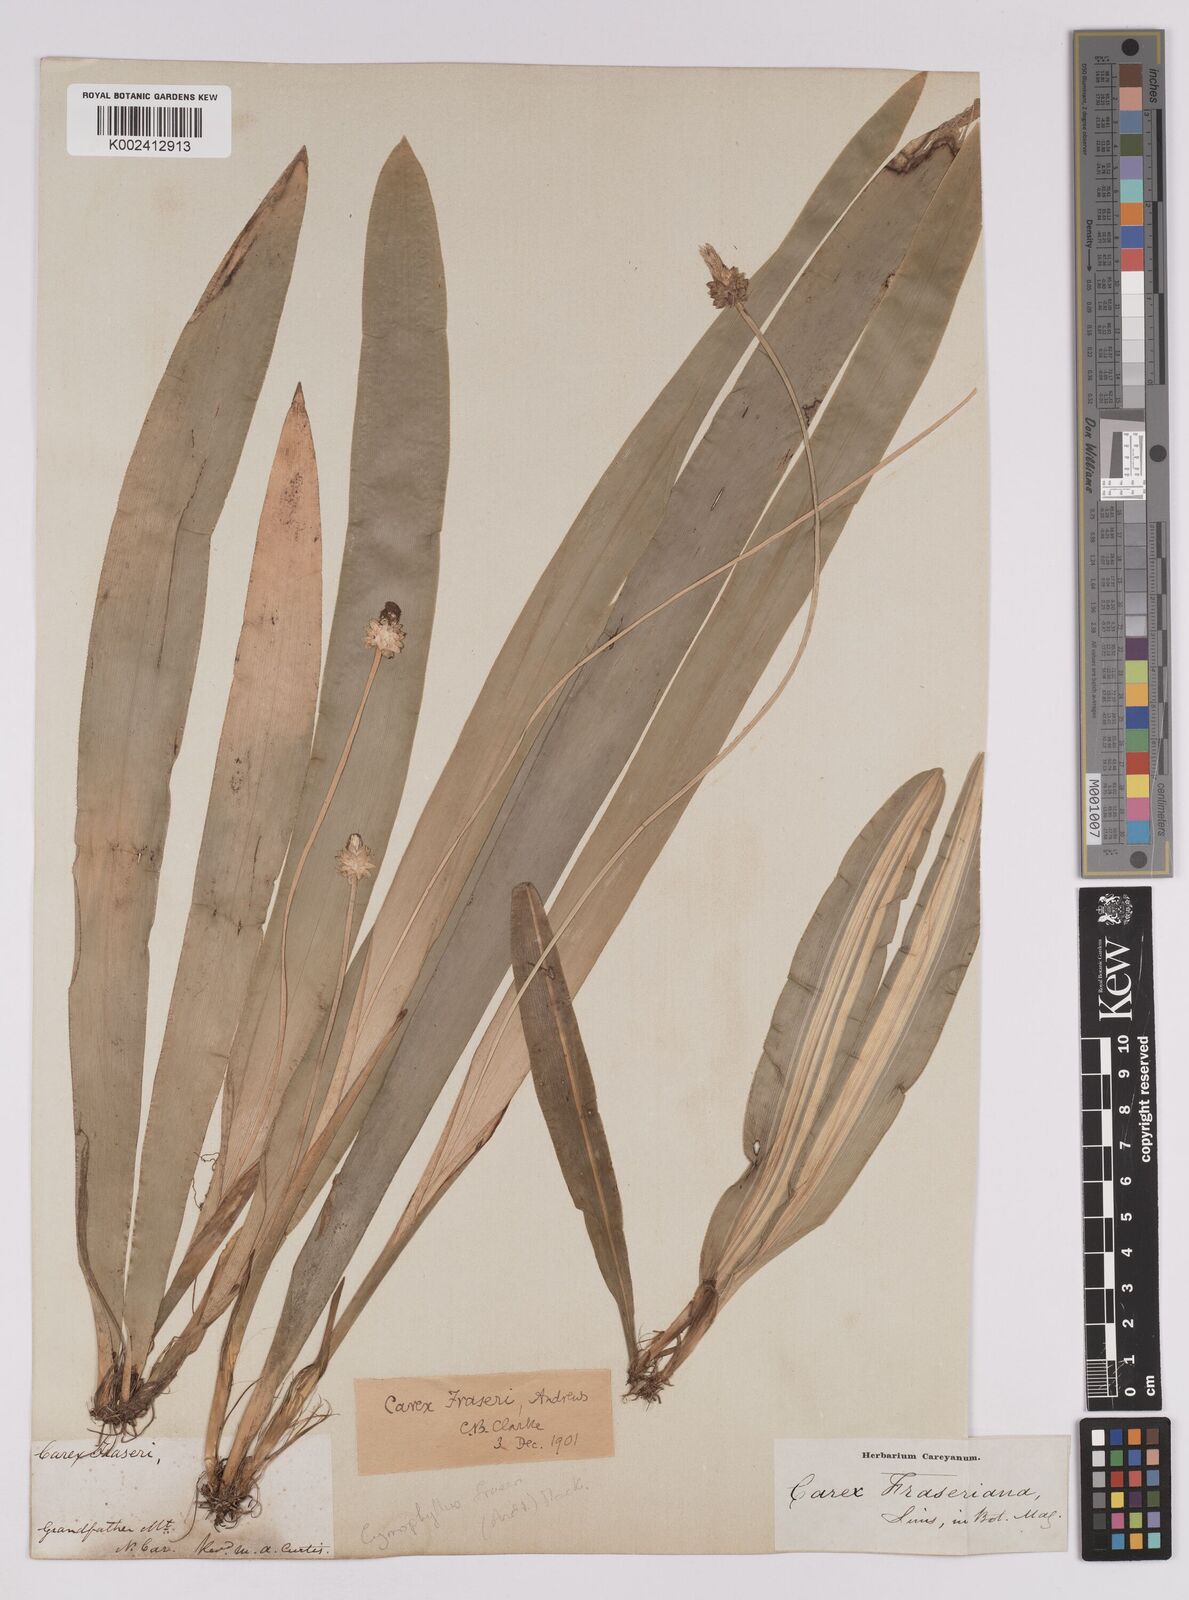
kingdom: Plantae
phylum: Tracheophyta
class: Liliopsida
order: Poales
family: Cyperaceae
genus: Carex
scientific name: Carex fraseriana
